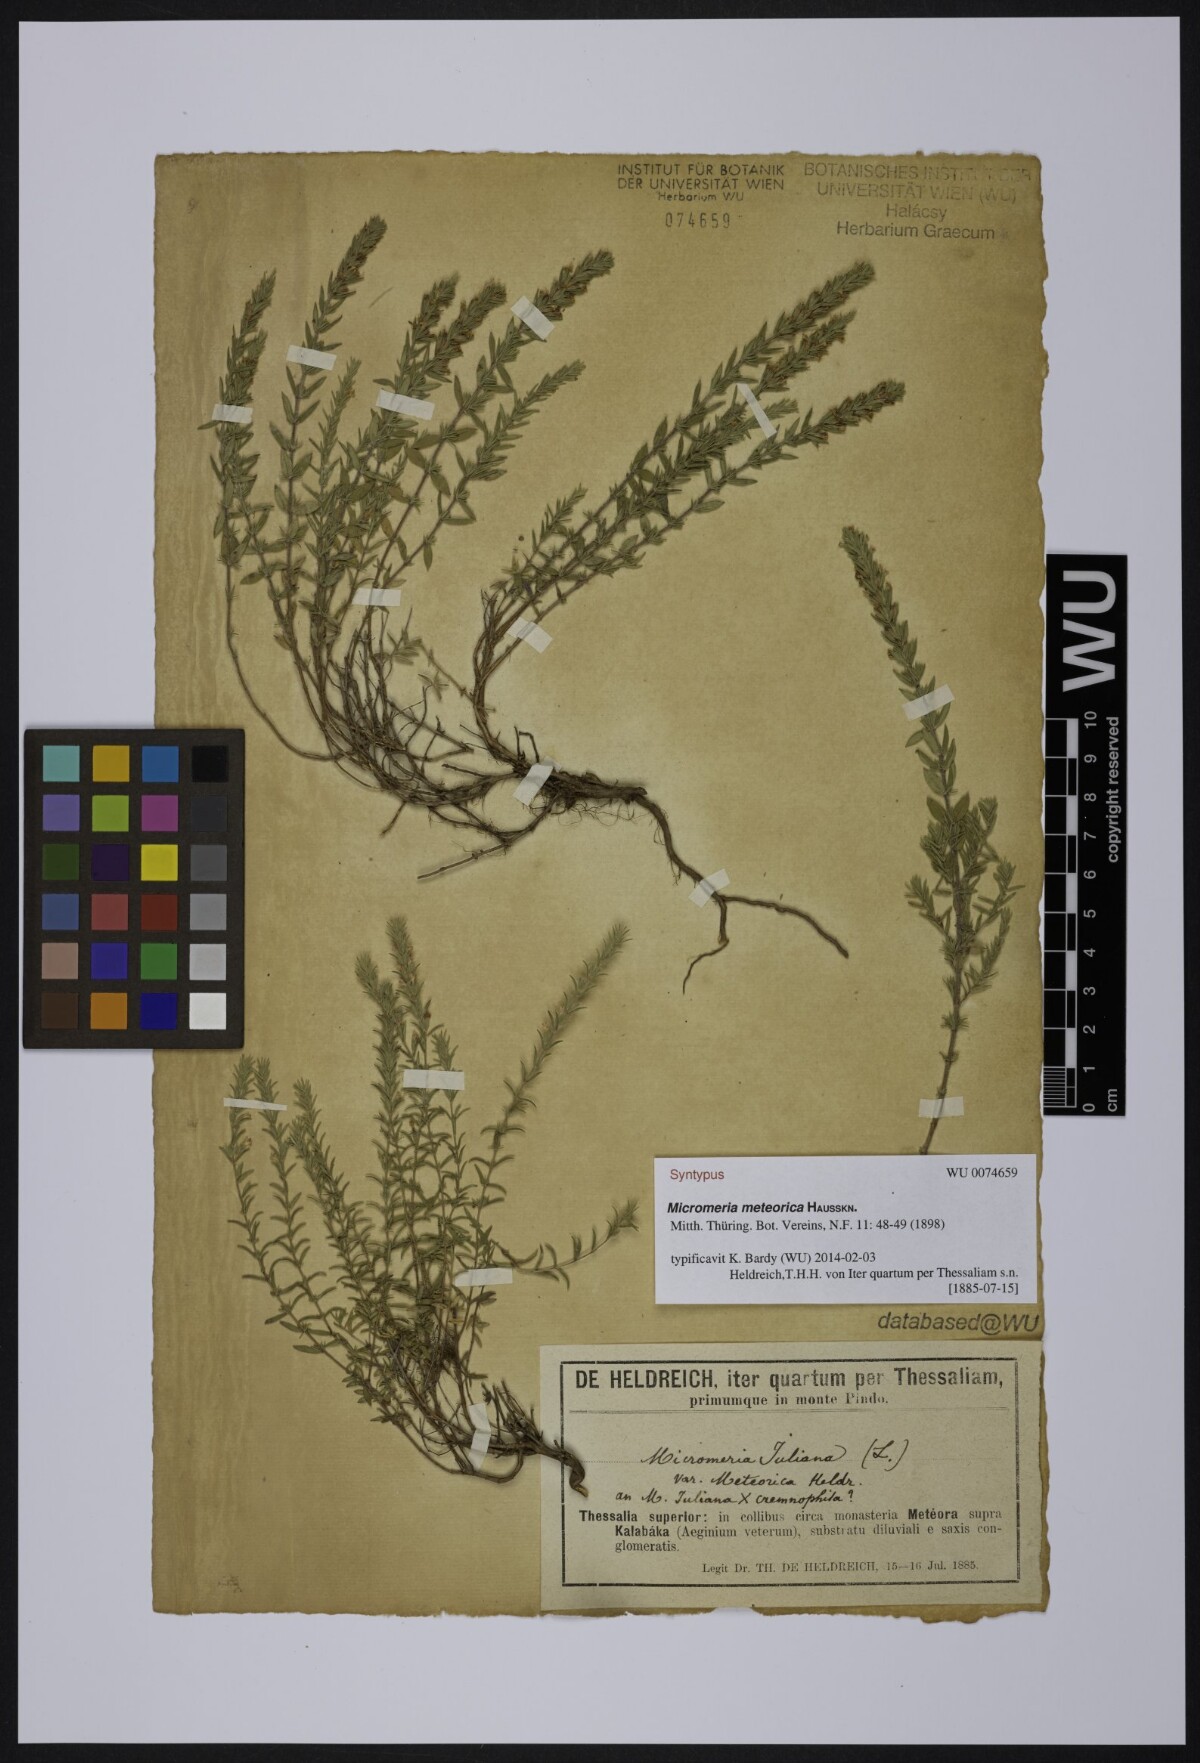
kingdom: Plantae
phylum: Tracheophyta
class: Magnoliopsida
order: Lamiales
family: Lamiaceae
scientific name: Lamiaceae
